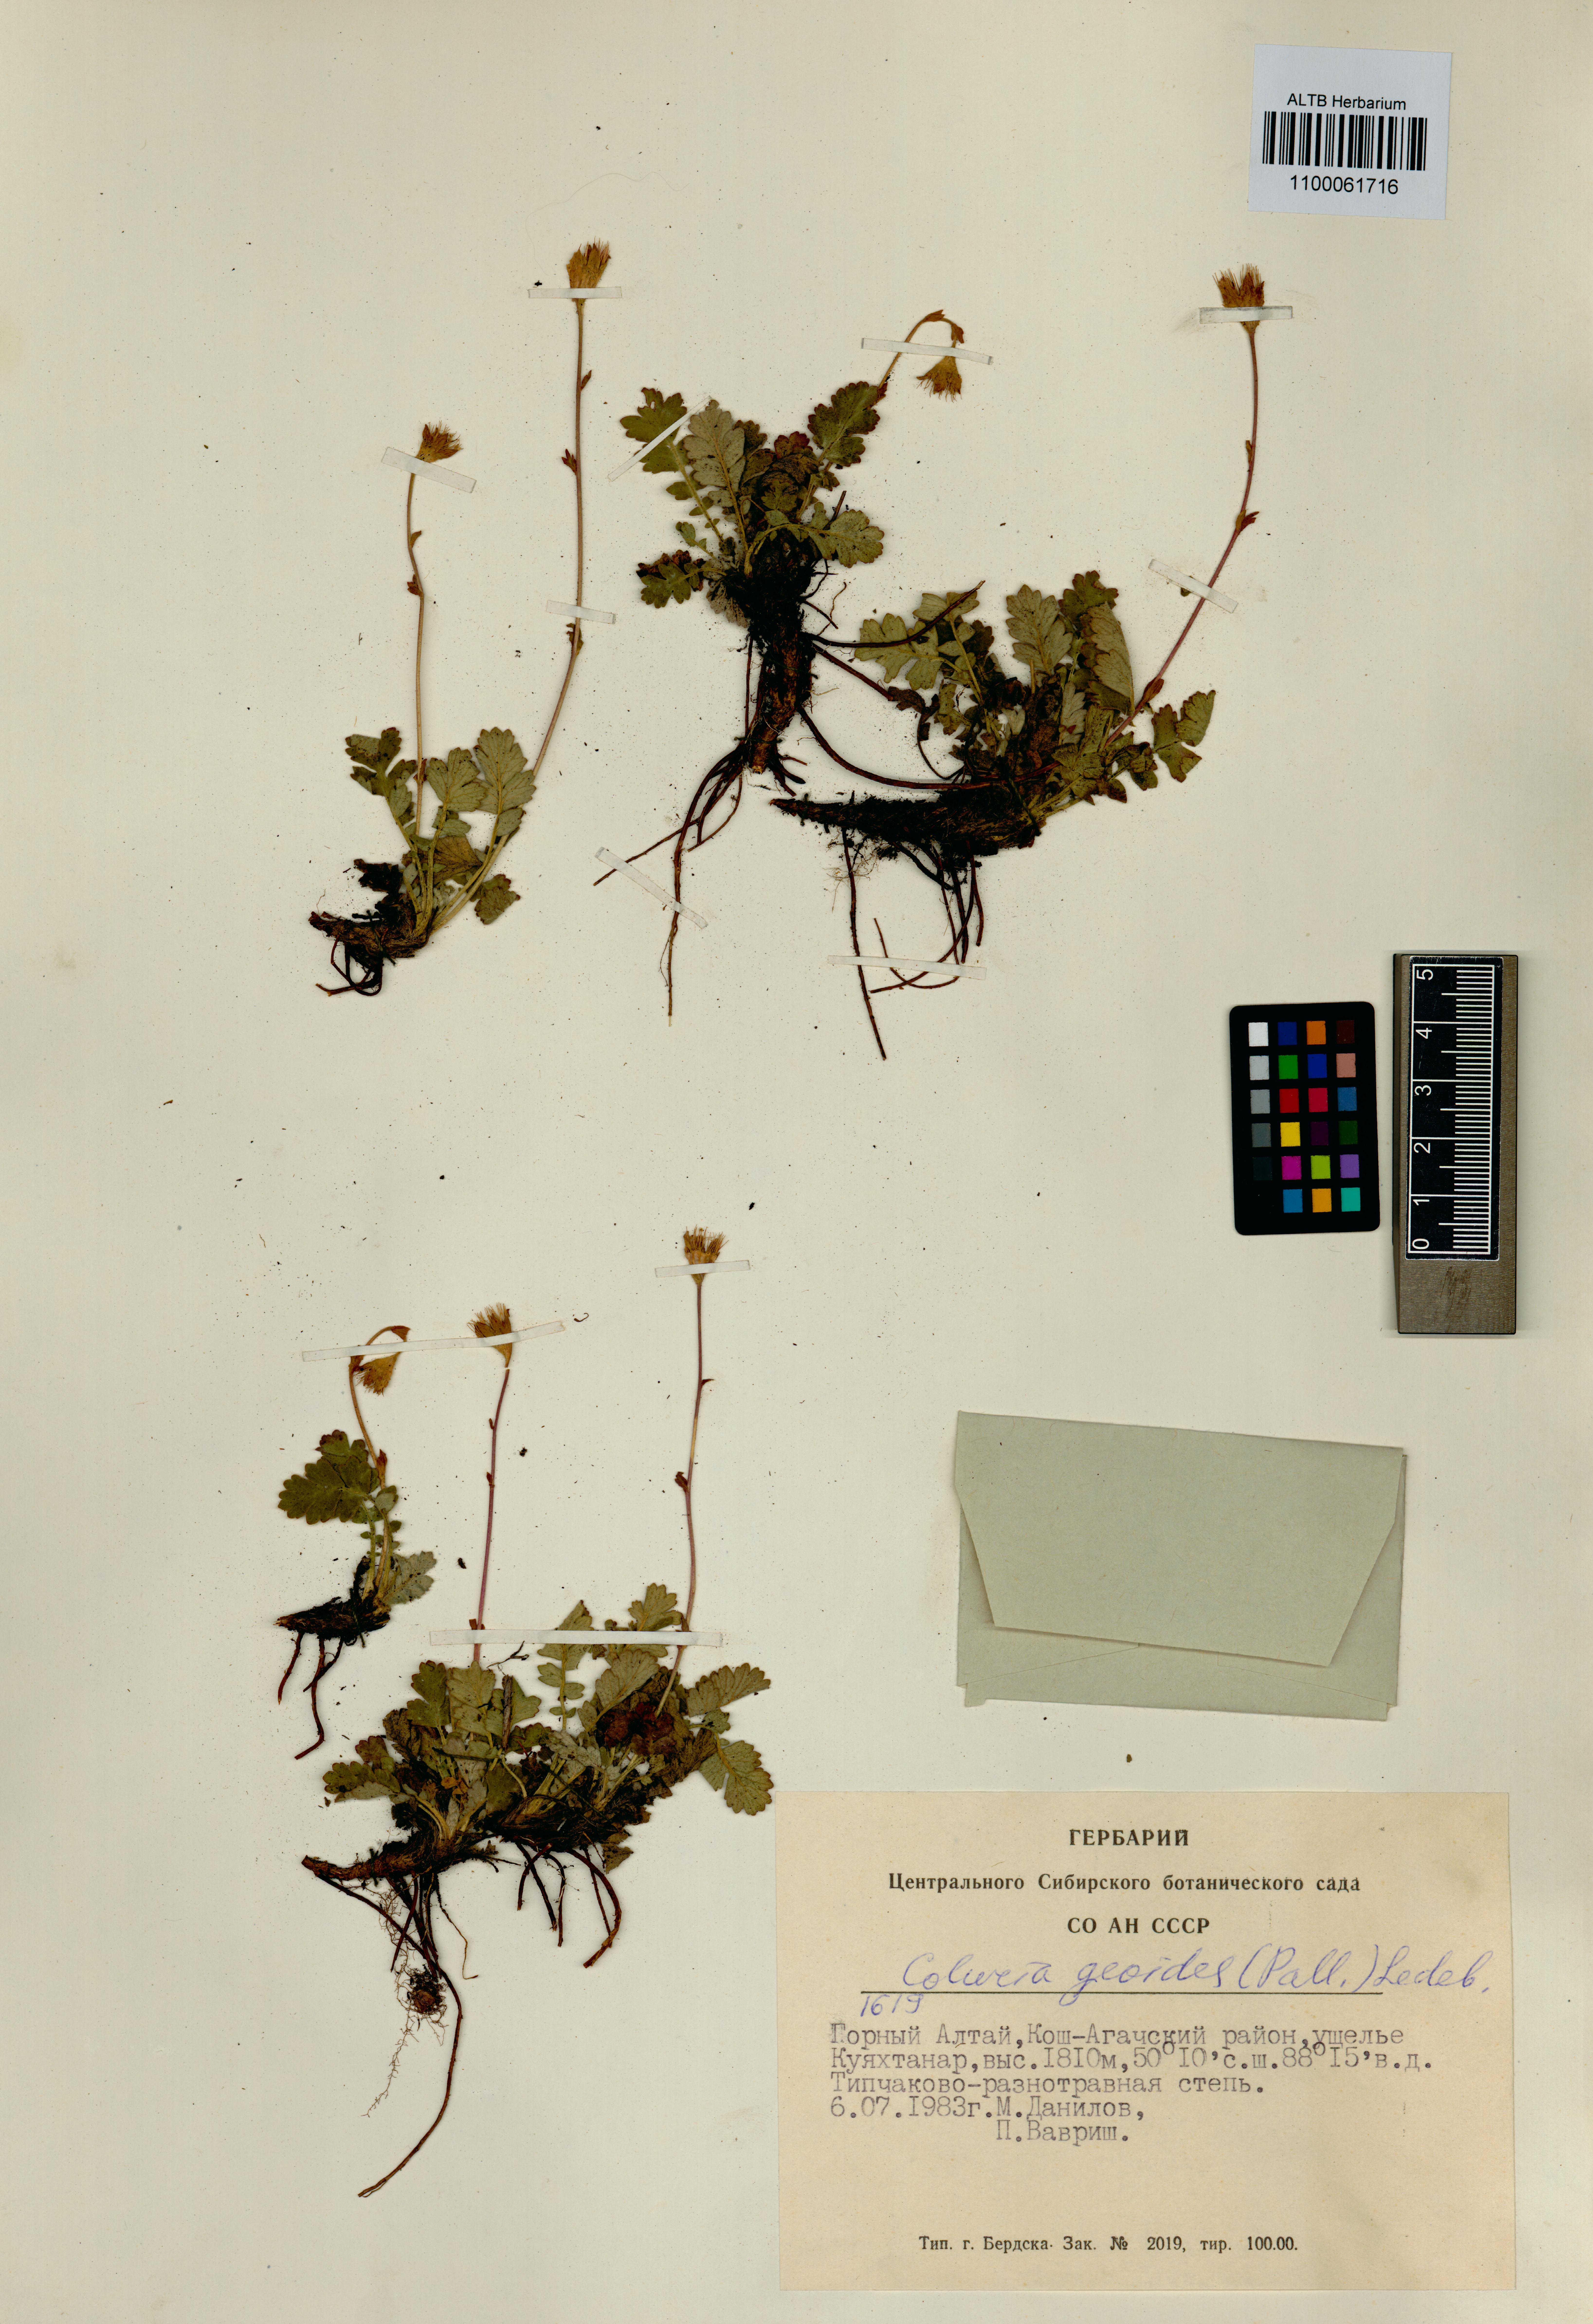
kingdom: Plantae
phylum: Tracheophyta
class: Magnoliopsida
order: Rosales
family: Rosaceae
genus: Geum
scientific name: Geum geoides
